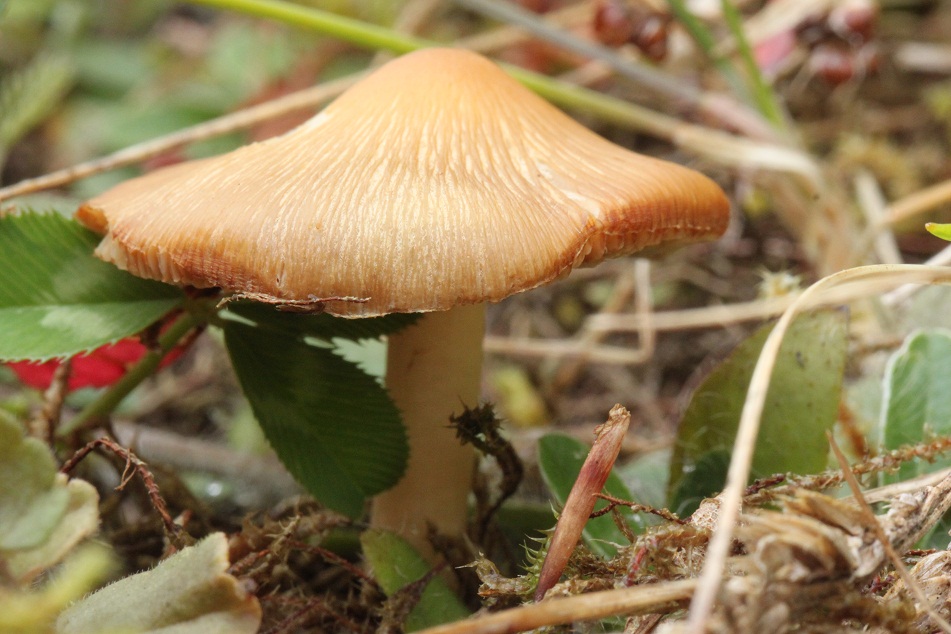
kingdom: Fungi
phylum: Basidiomycota
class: Agaricomycetes
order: Agaricales
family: Inocybaceae
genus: Inosperma
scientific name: Inosperma
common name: strågul trævlhat
